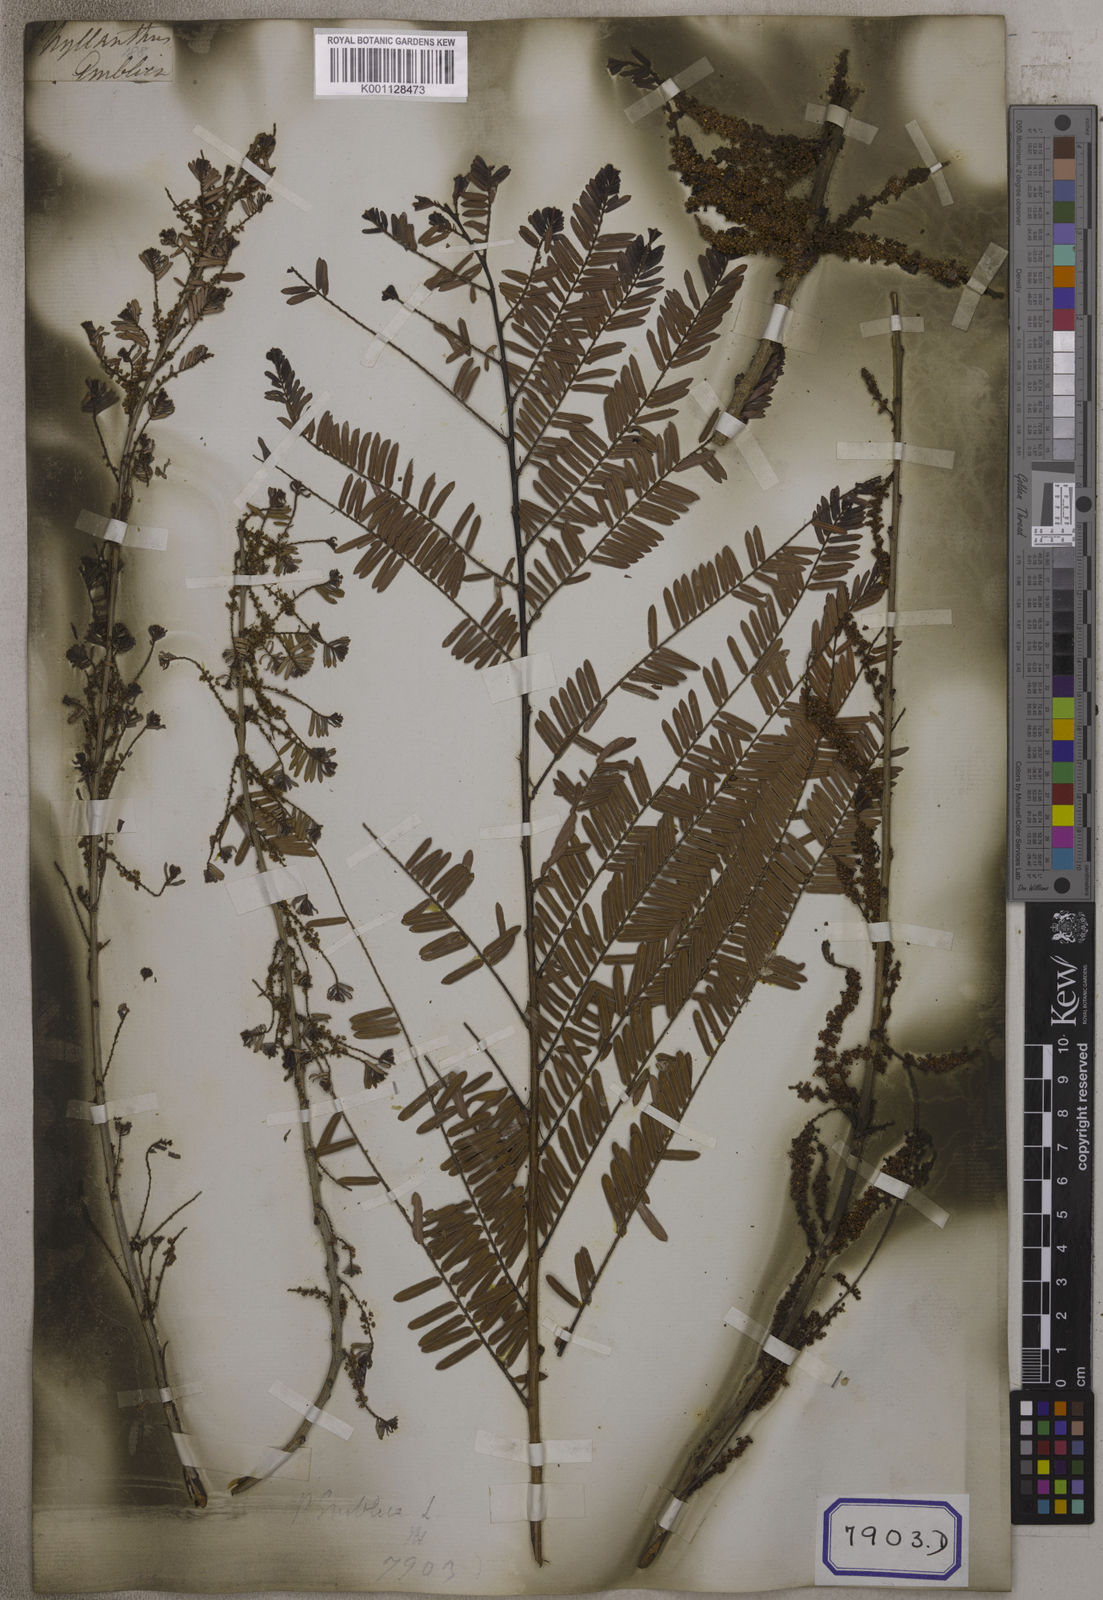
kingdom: Plantae
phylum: Tracheophyta
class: Magnoliopsida
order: Malpighiales
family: Euphorbiaceae
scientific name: Euphorbiaceae
